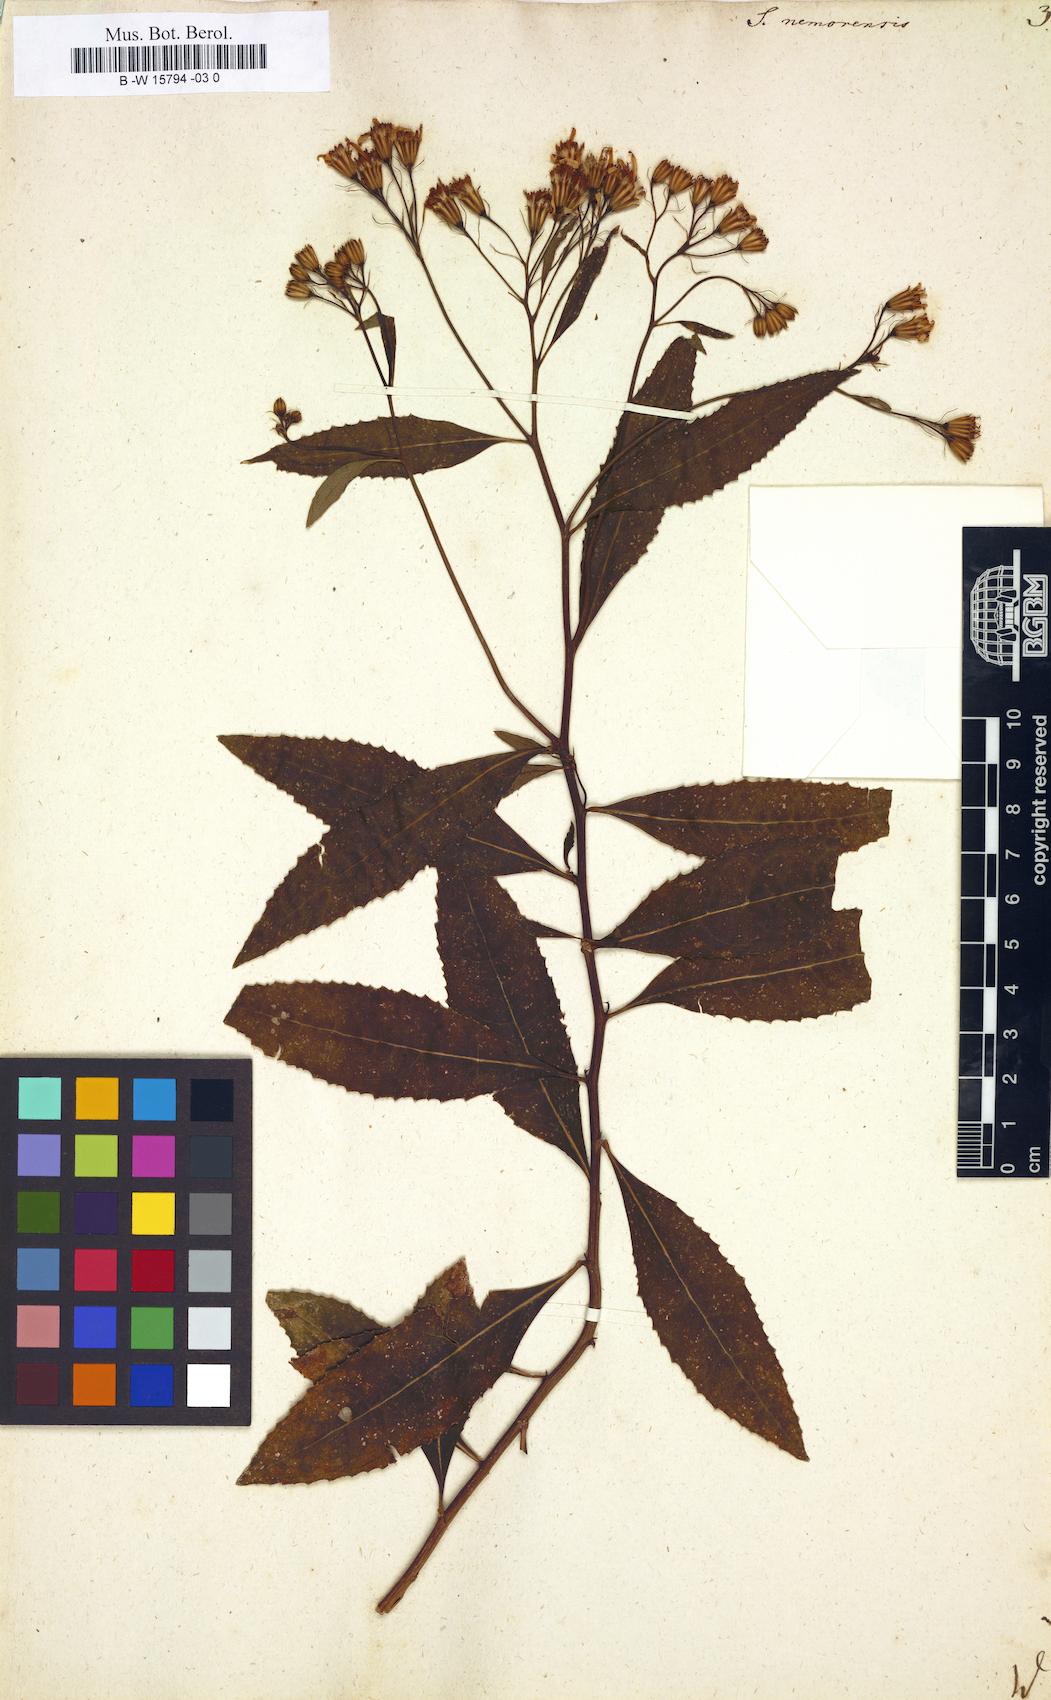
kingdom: Plantae
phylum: Tracheophyta
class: Magnoliopsida
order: Asterales
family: Asteraceae
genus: Senecio
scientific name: Senecio nemorensis
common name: Alpine ragwort
